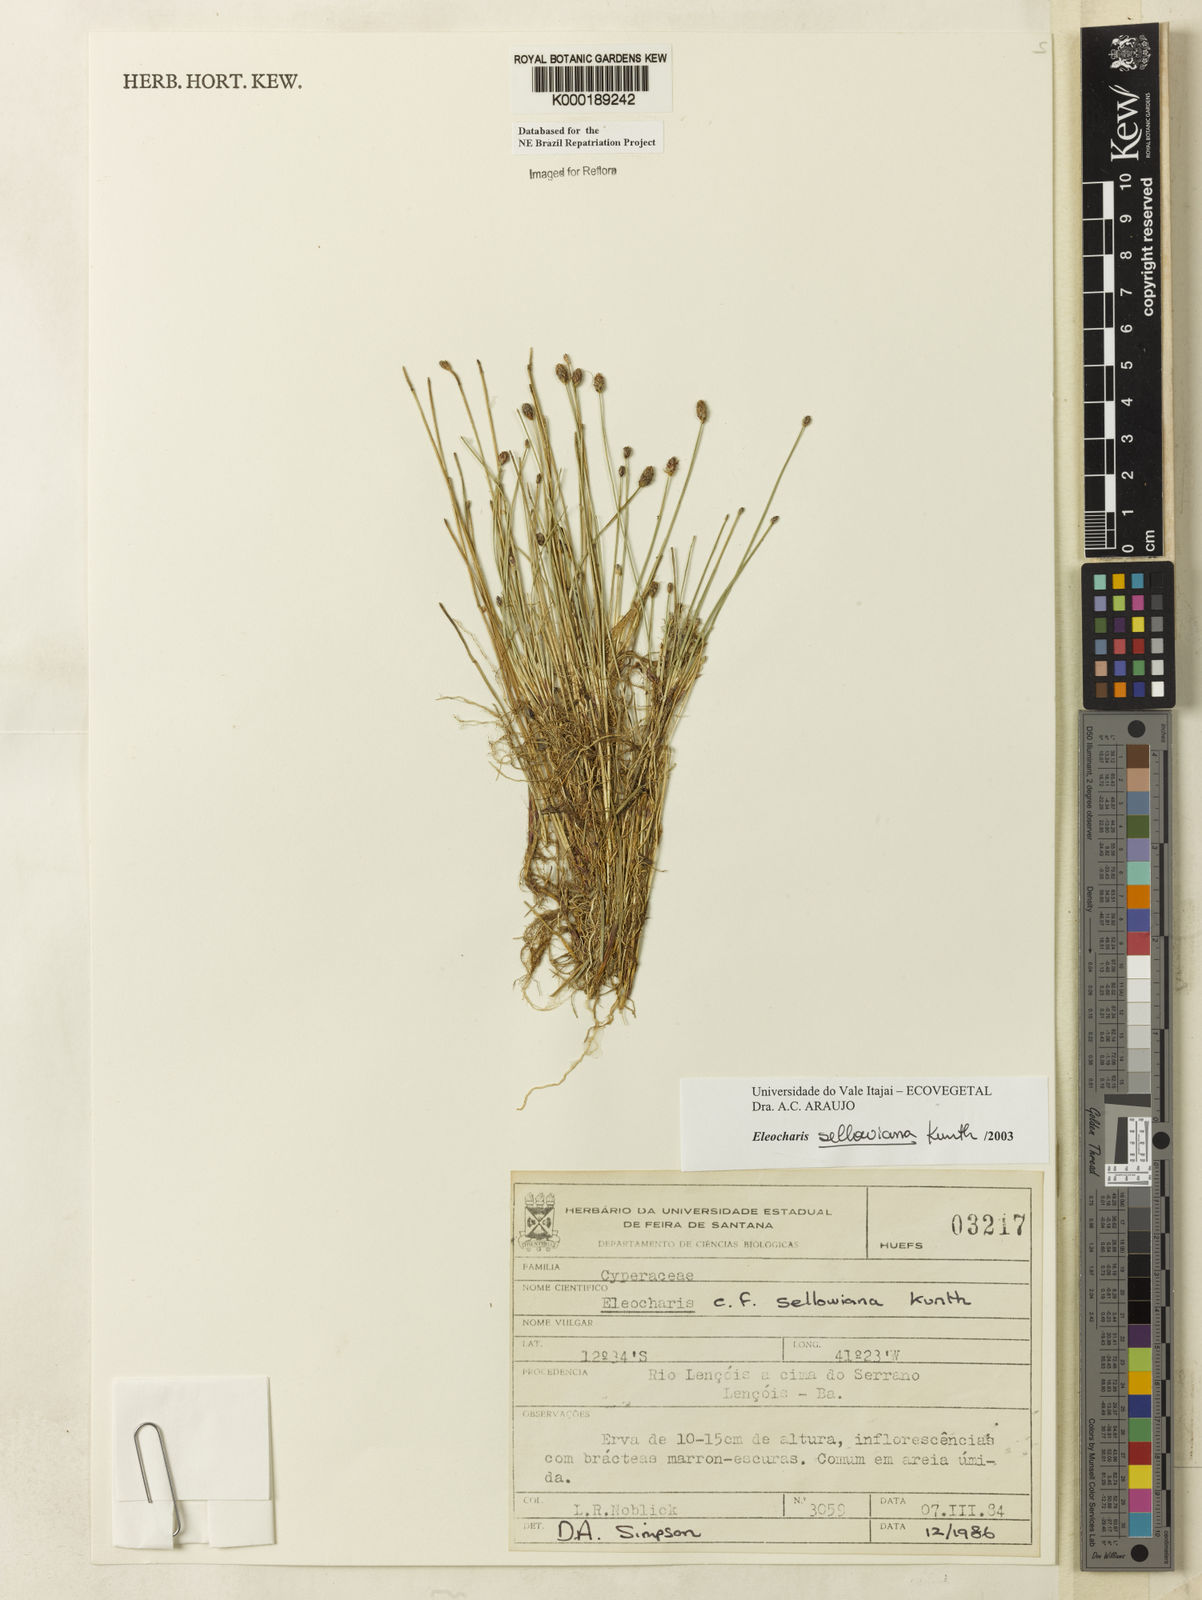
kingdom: Plantae
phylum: Tracheophyta
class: Liliopsida
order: Poales
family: Cyperaceae
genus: Eleocharis
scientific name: Eleocharis sellowiana
